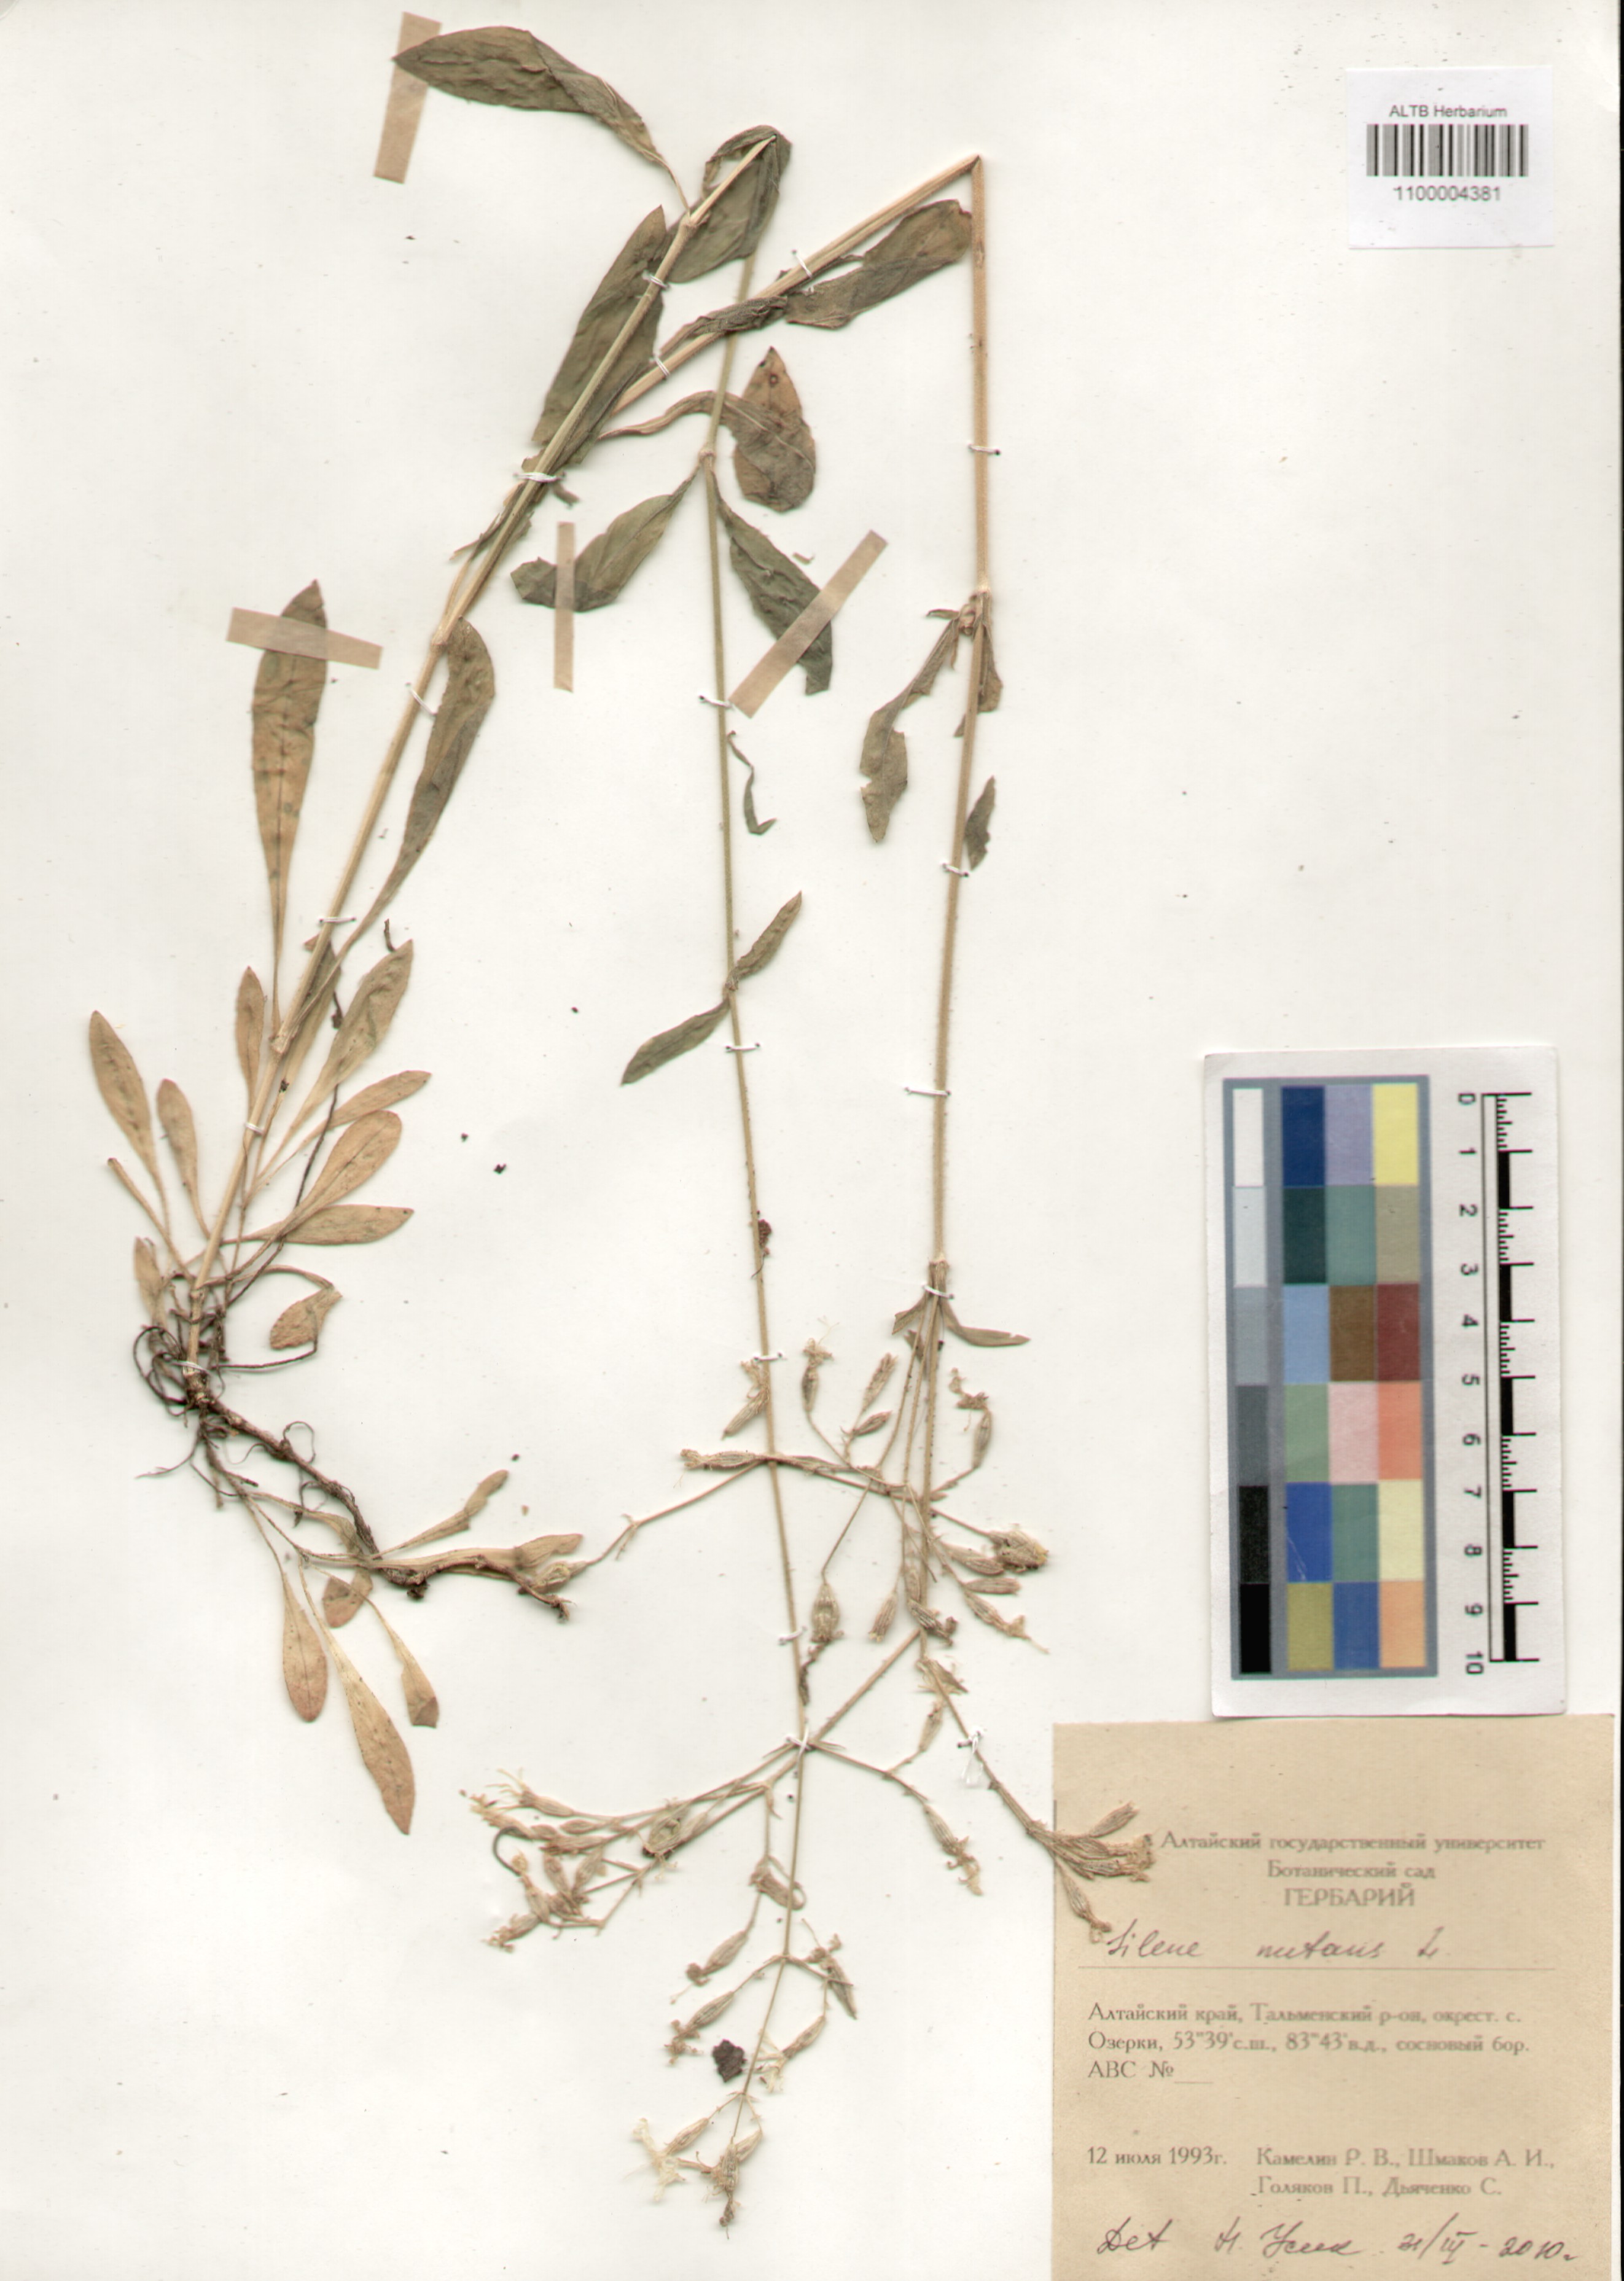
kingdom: Plantae
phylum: Tracheophyta
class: Magnoliopsida
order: Caryophyllales
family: Caryophyllaceae
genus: Silene
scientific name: Silene nutans
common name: Nottingham catchfly
